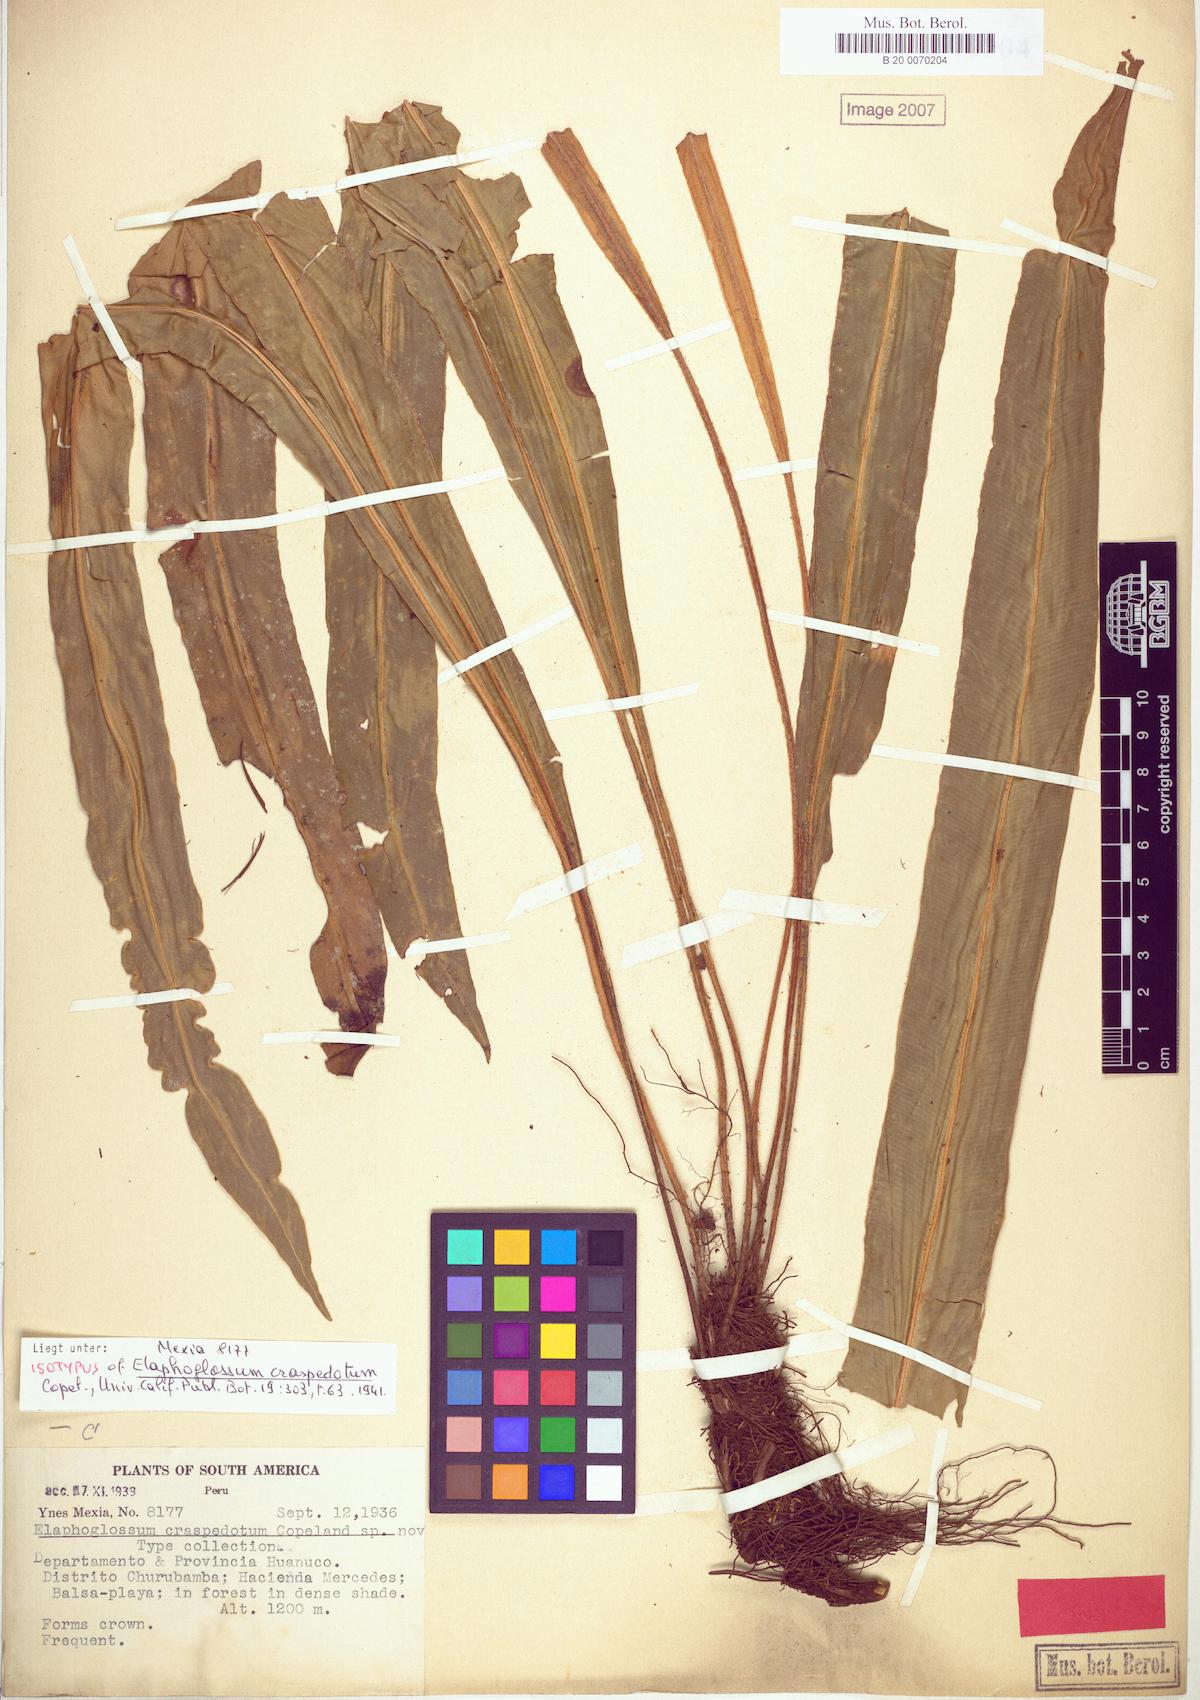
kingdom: Plantae
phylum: Tracheophyta
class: Polypodiopsida
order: Polypodiales
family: Dryopteridaceae
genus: Elaphoglossum
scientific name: Elaphoglossum craspedotum
